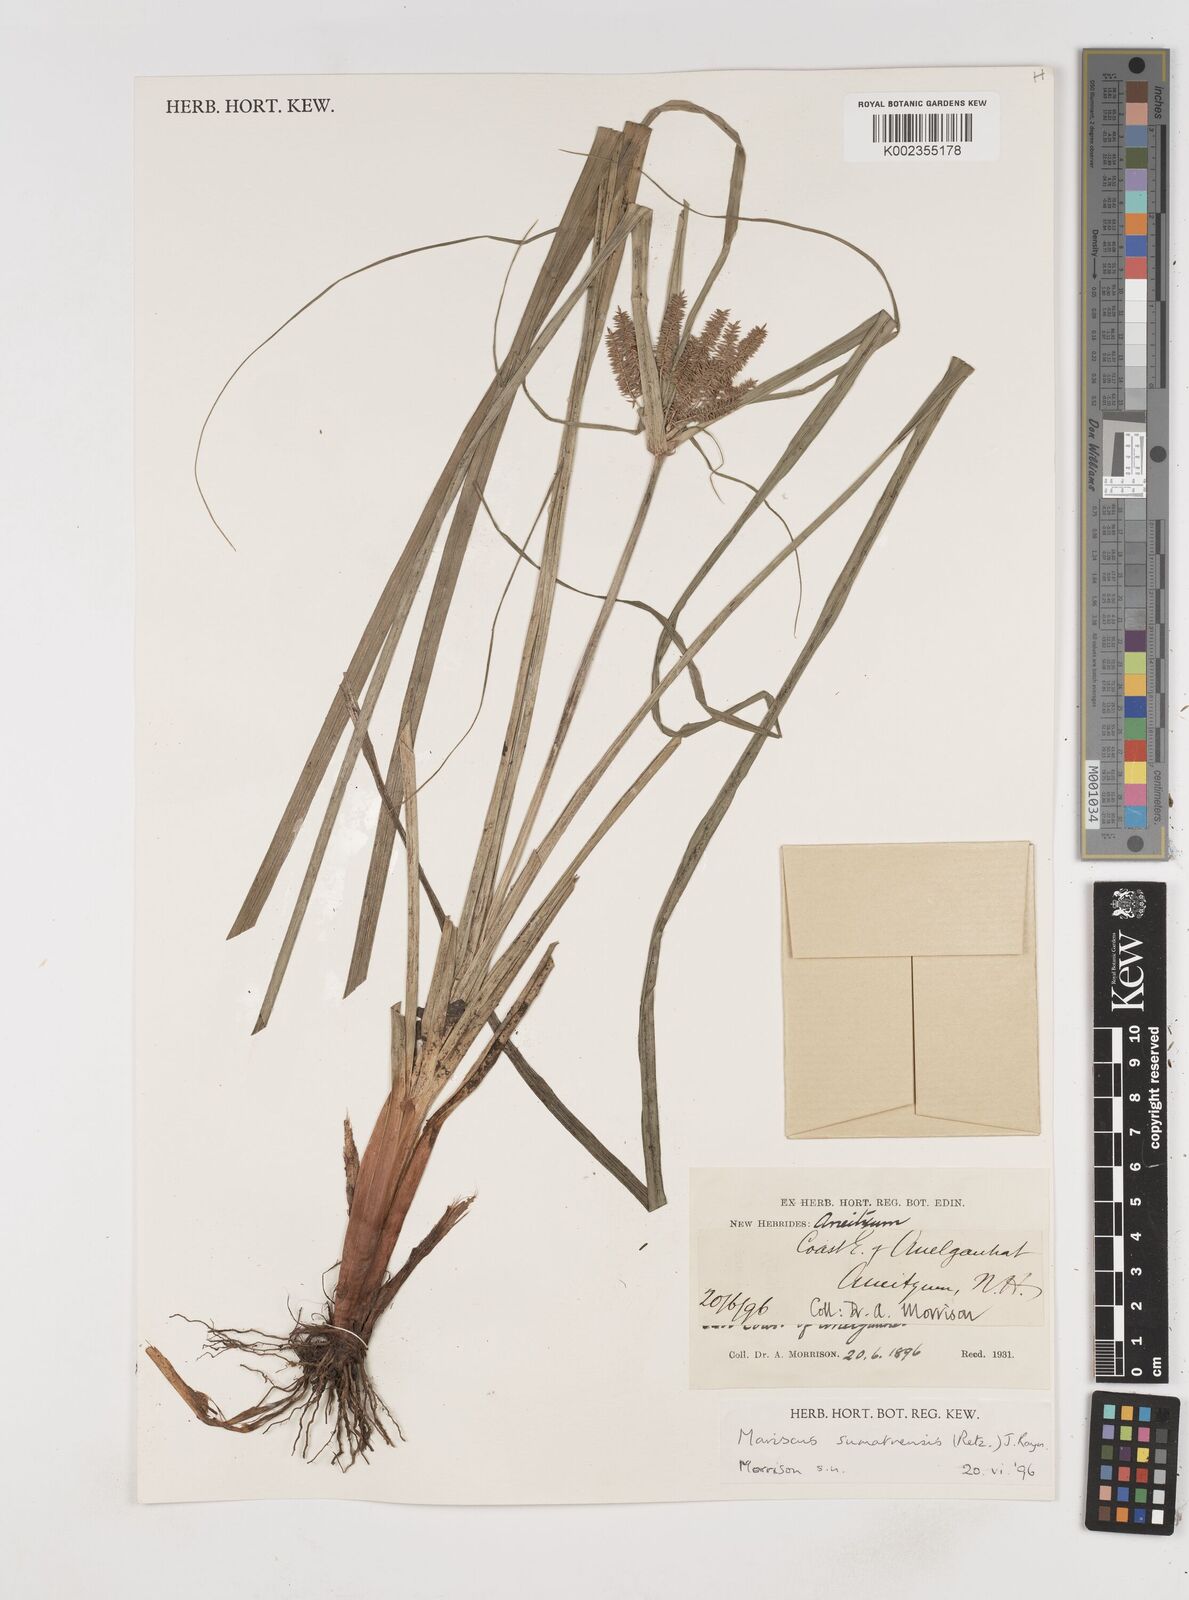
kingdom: Plantae
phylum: Tracheophyta
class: Liliopsida
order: Poales
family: Cyperaceae
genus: Cyperus
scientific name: Cyperus cyperoides
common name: Pacific island flat sedge
